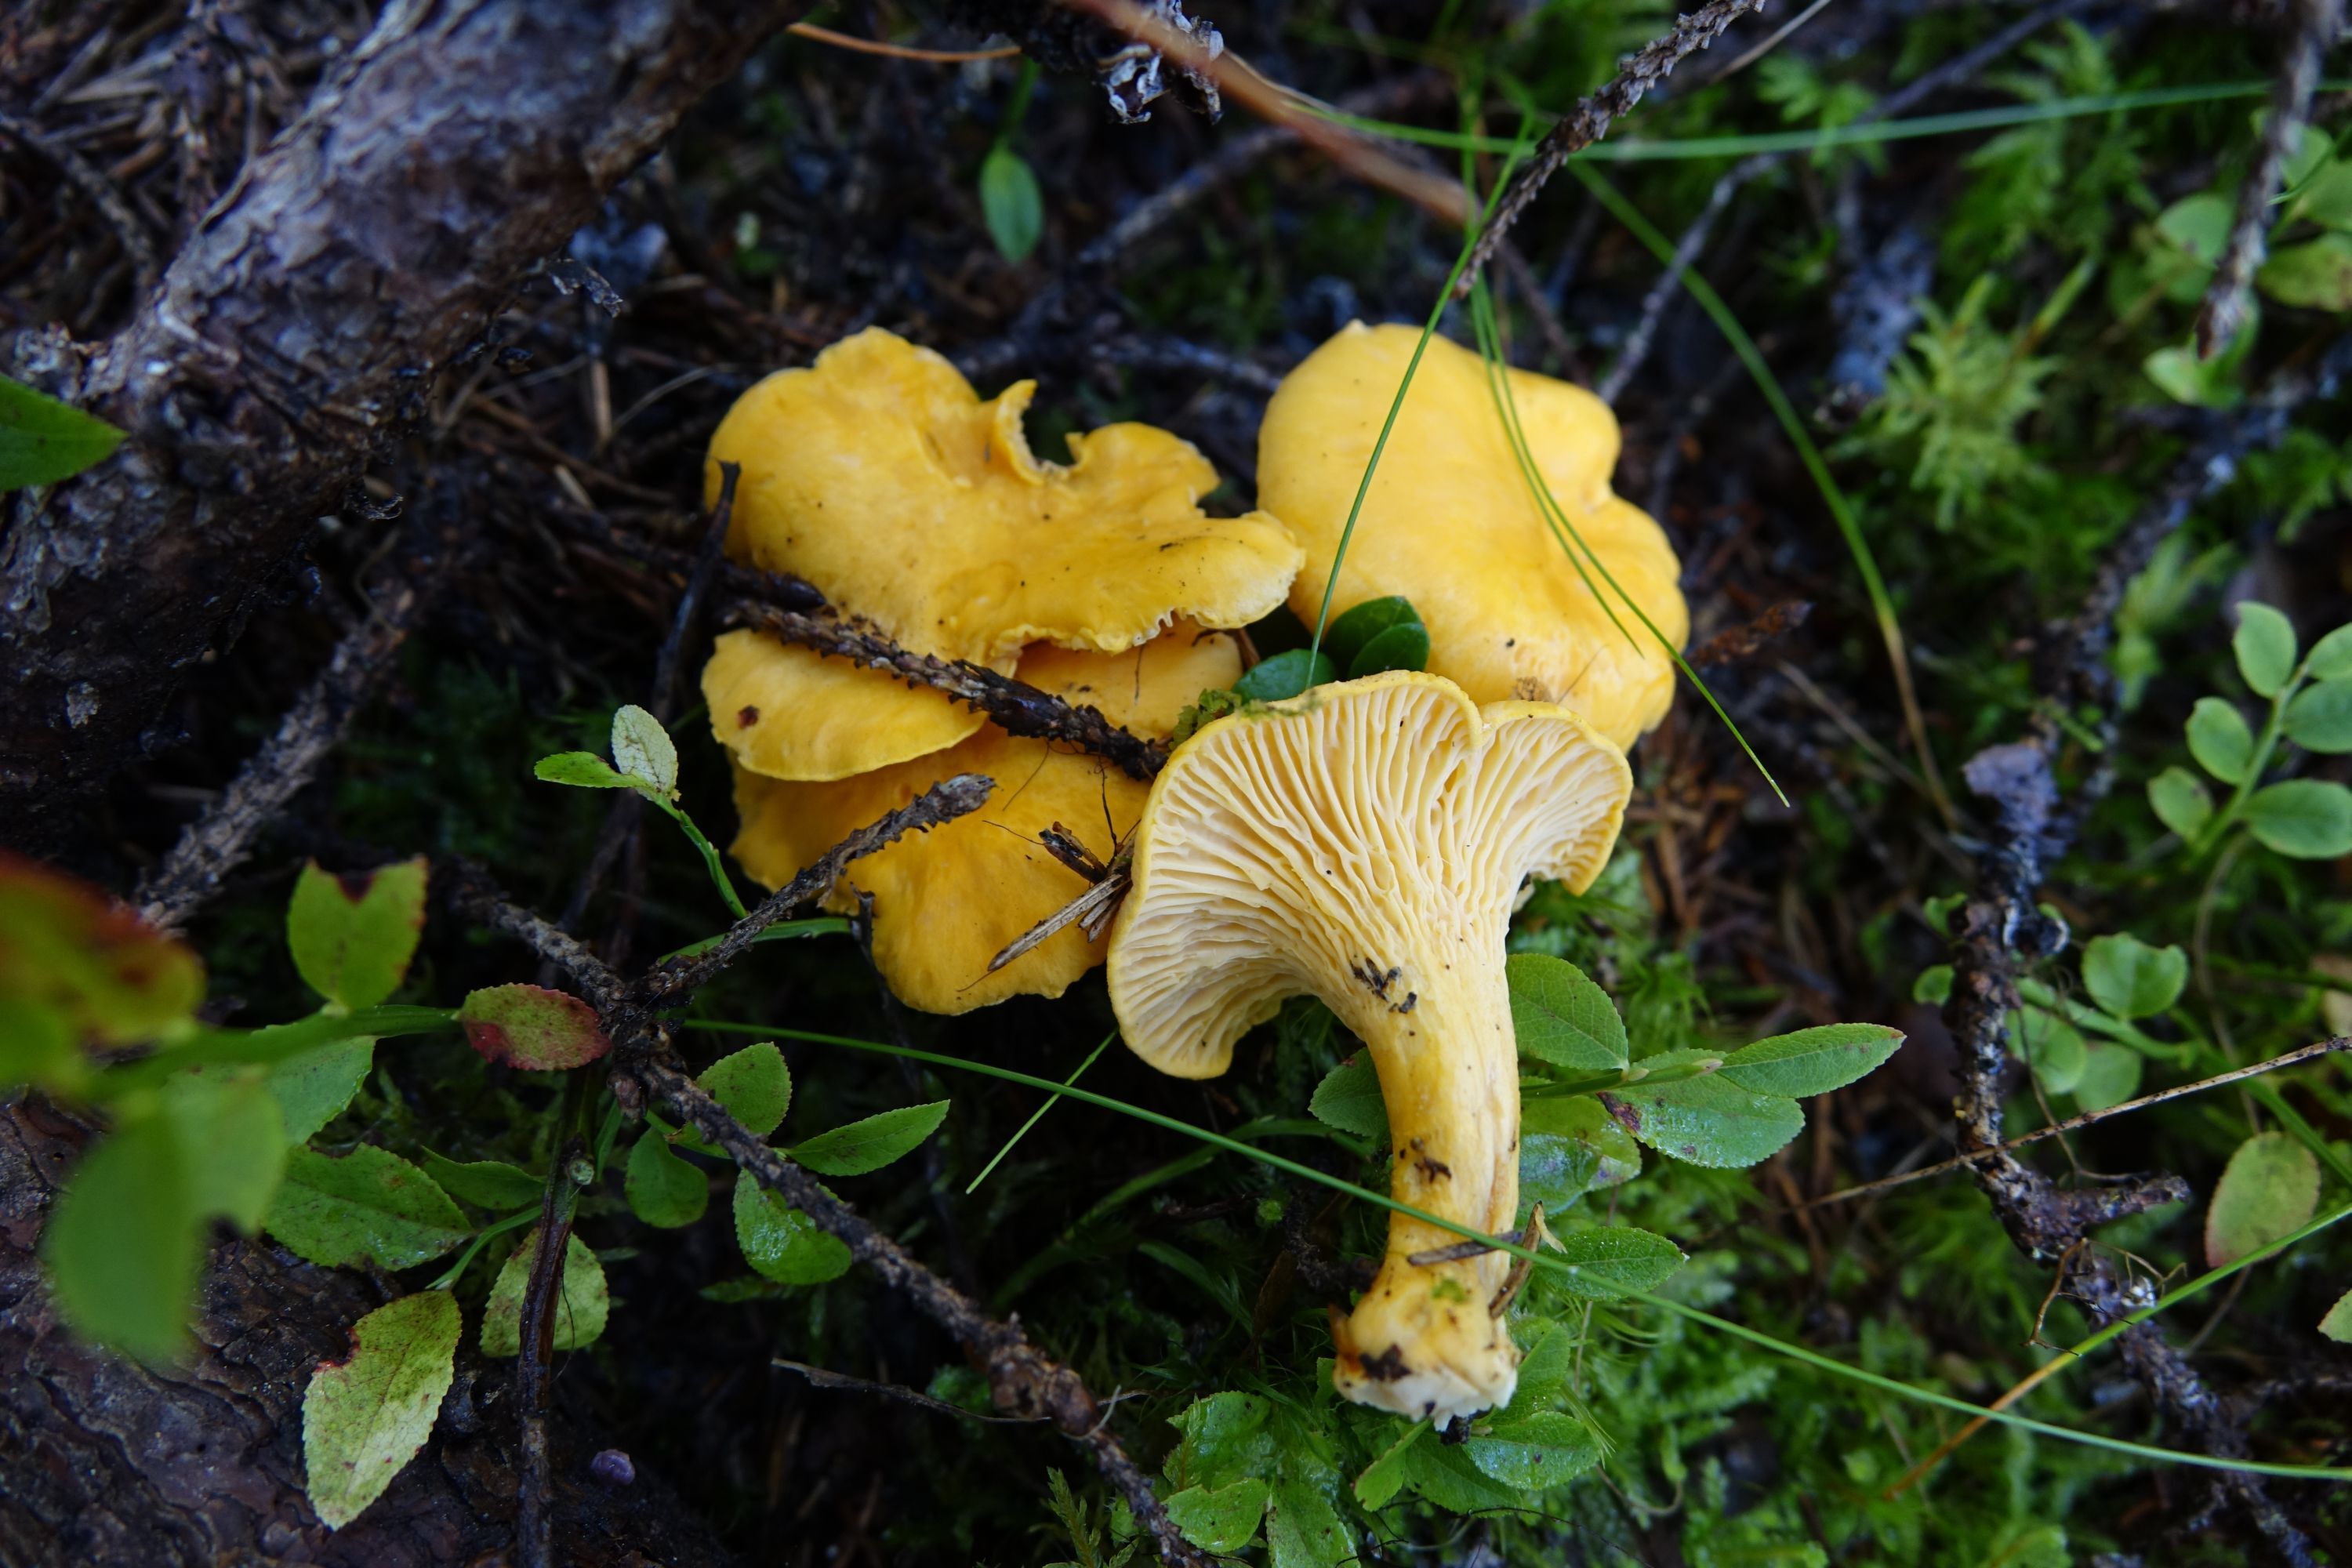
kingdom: Fungi
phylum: Basidiomycota
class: Agaricomycetes
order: Cantharellales
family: Hydnaceae
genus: Cantharellus
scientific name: Cantharellus cibarius
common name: Chanterelle
